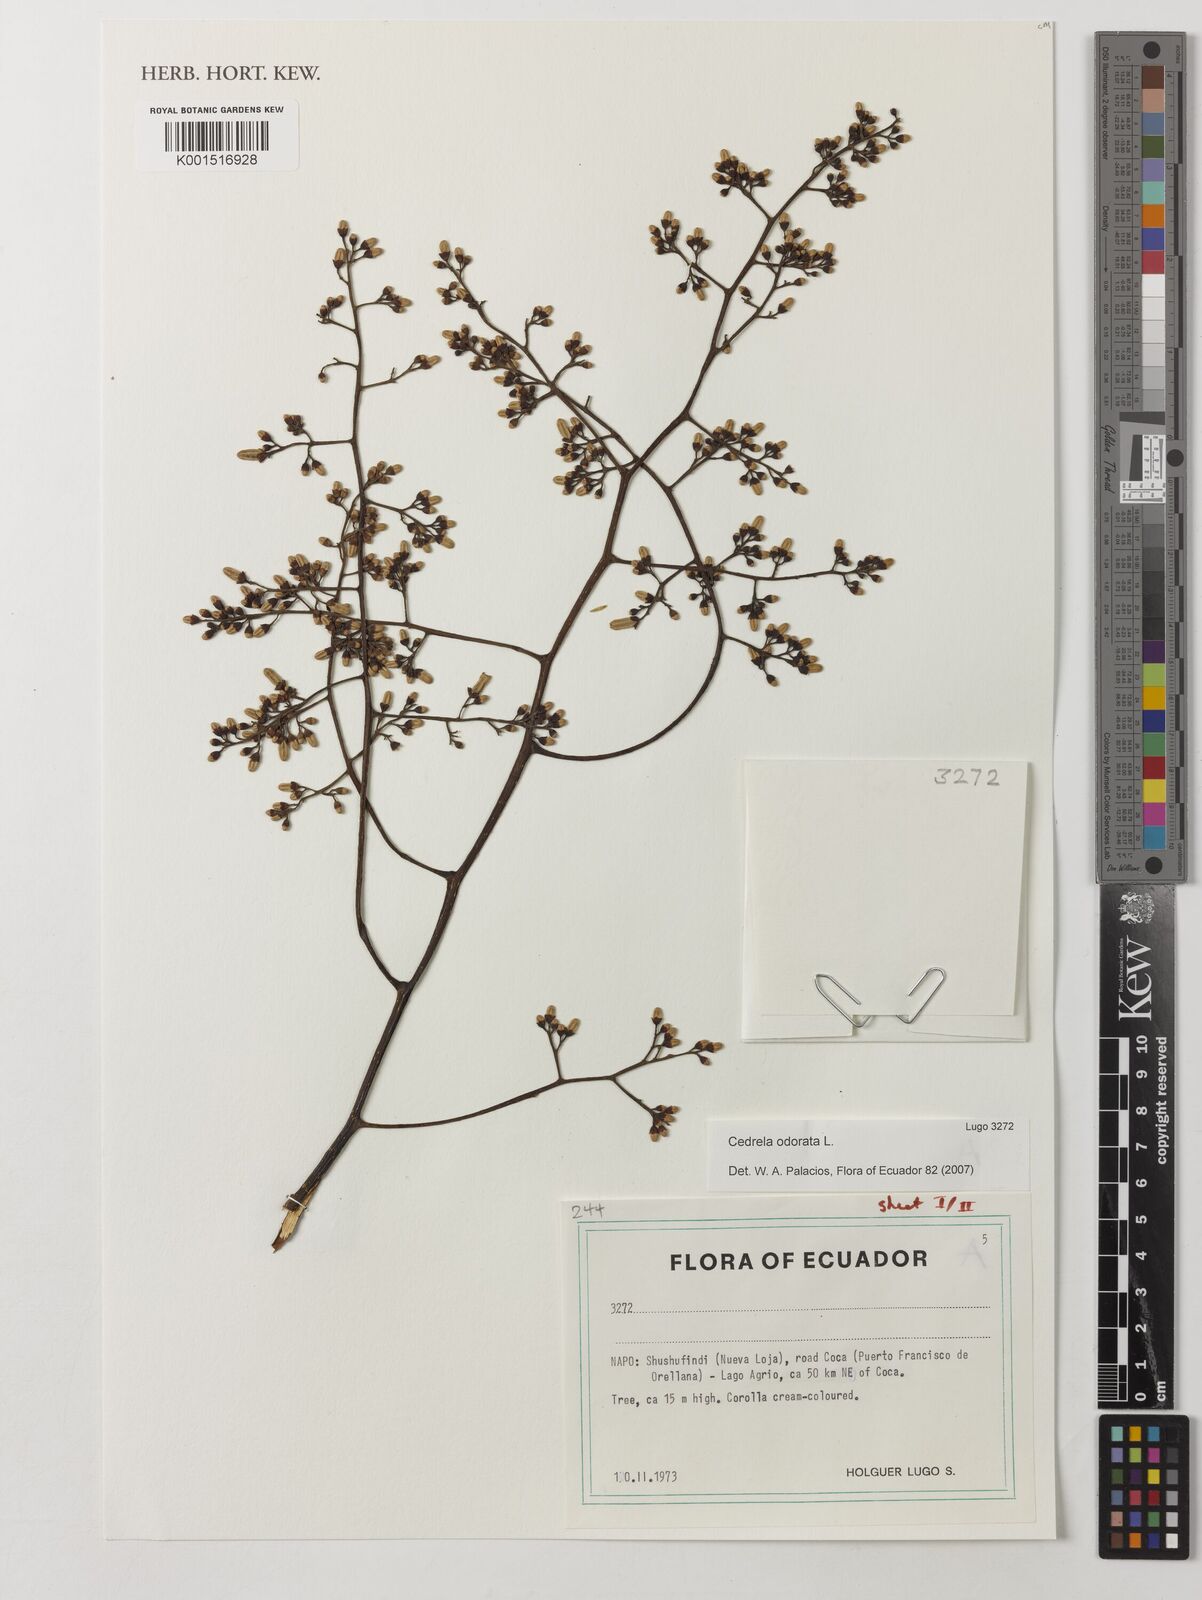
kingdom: Plantae
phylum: Tracheophyta
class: Magnoliopsida
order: Sapindales
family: Meliaceae
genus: Cedrela
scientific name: Cedrela odorata
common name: Red cedar
